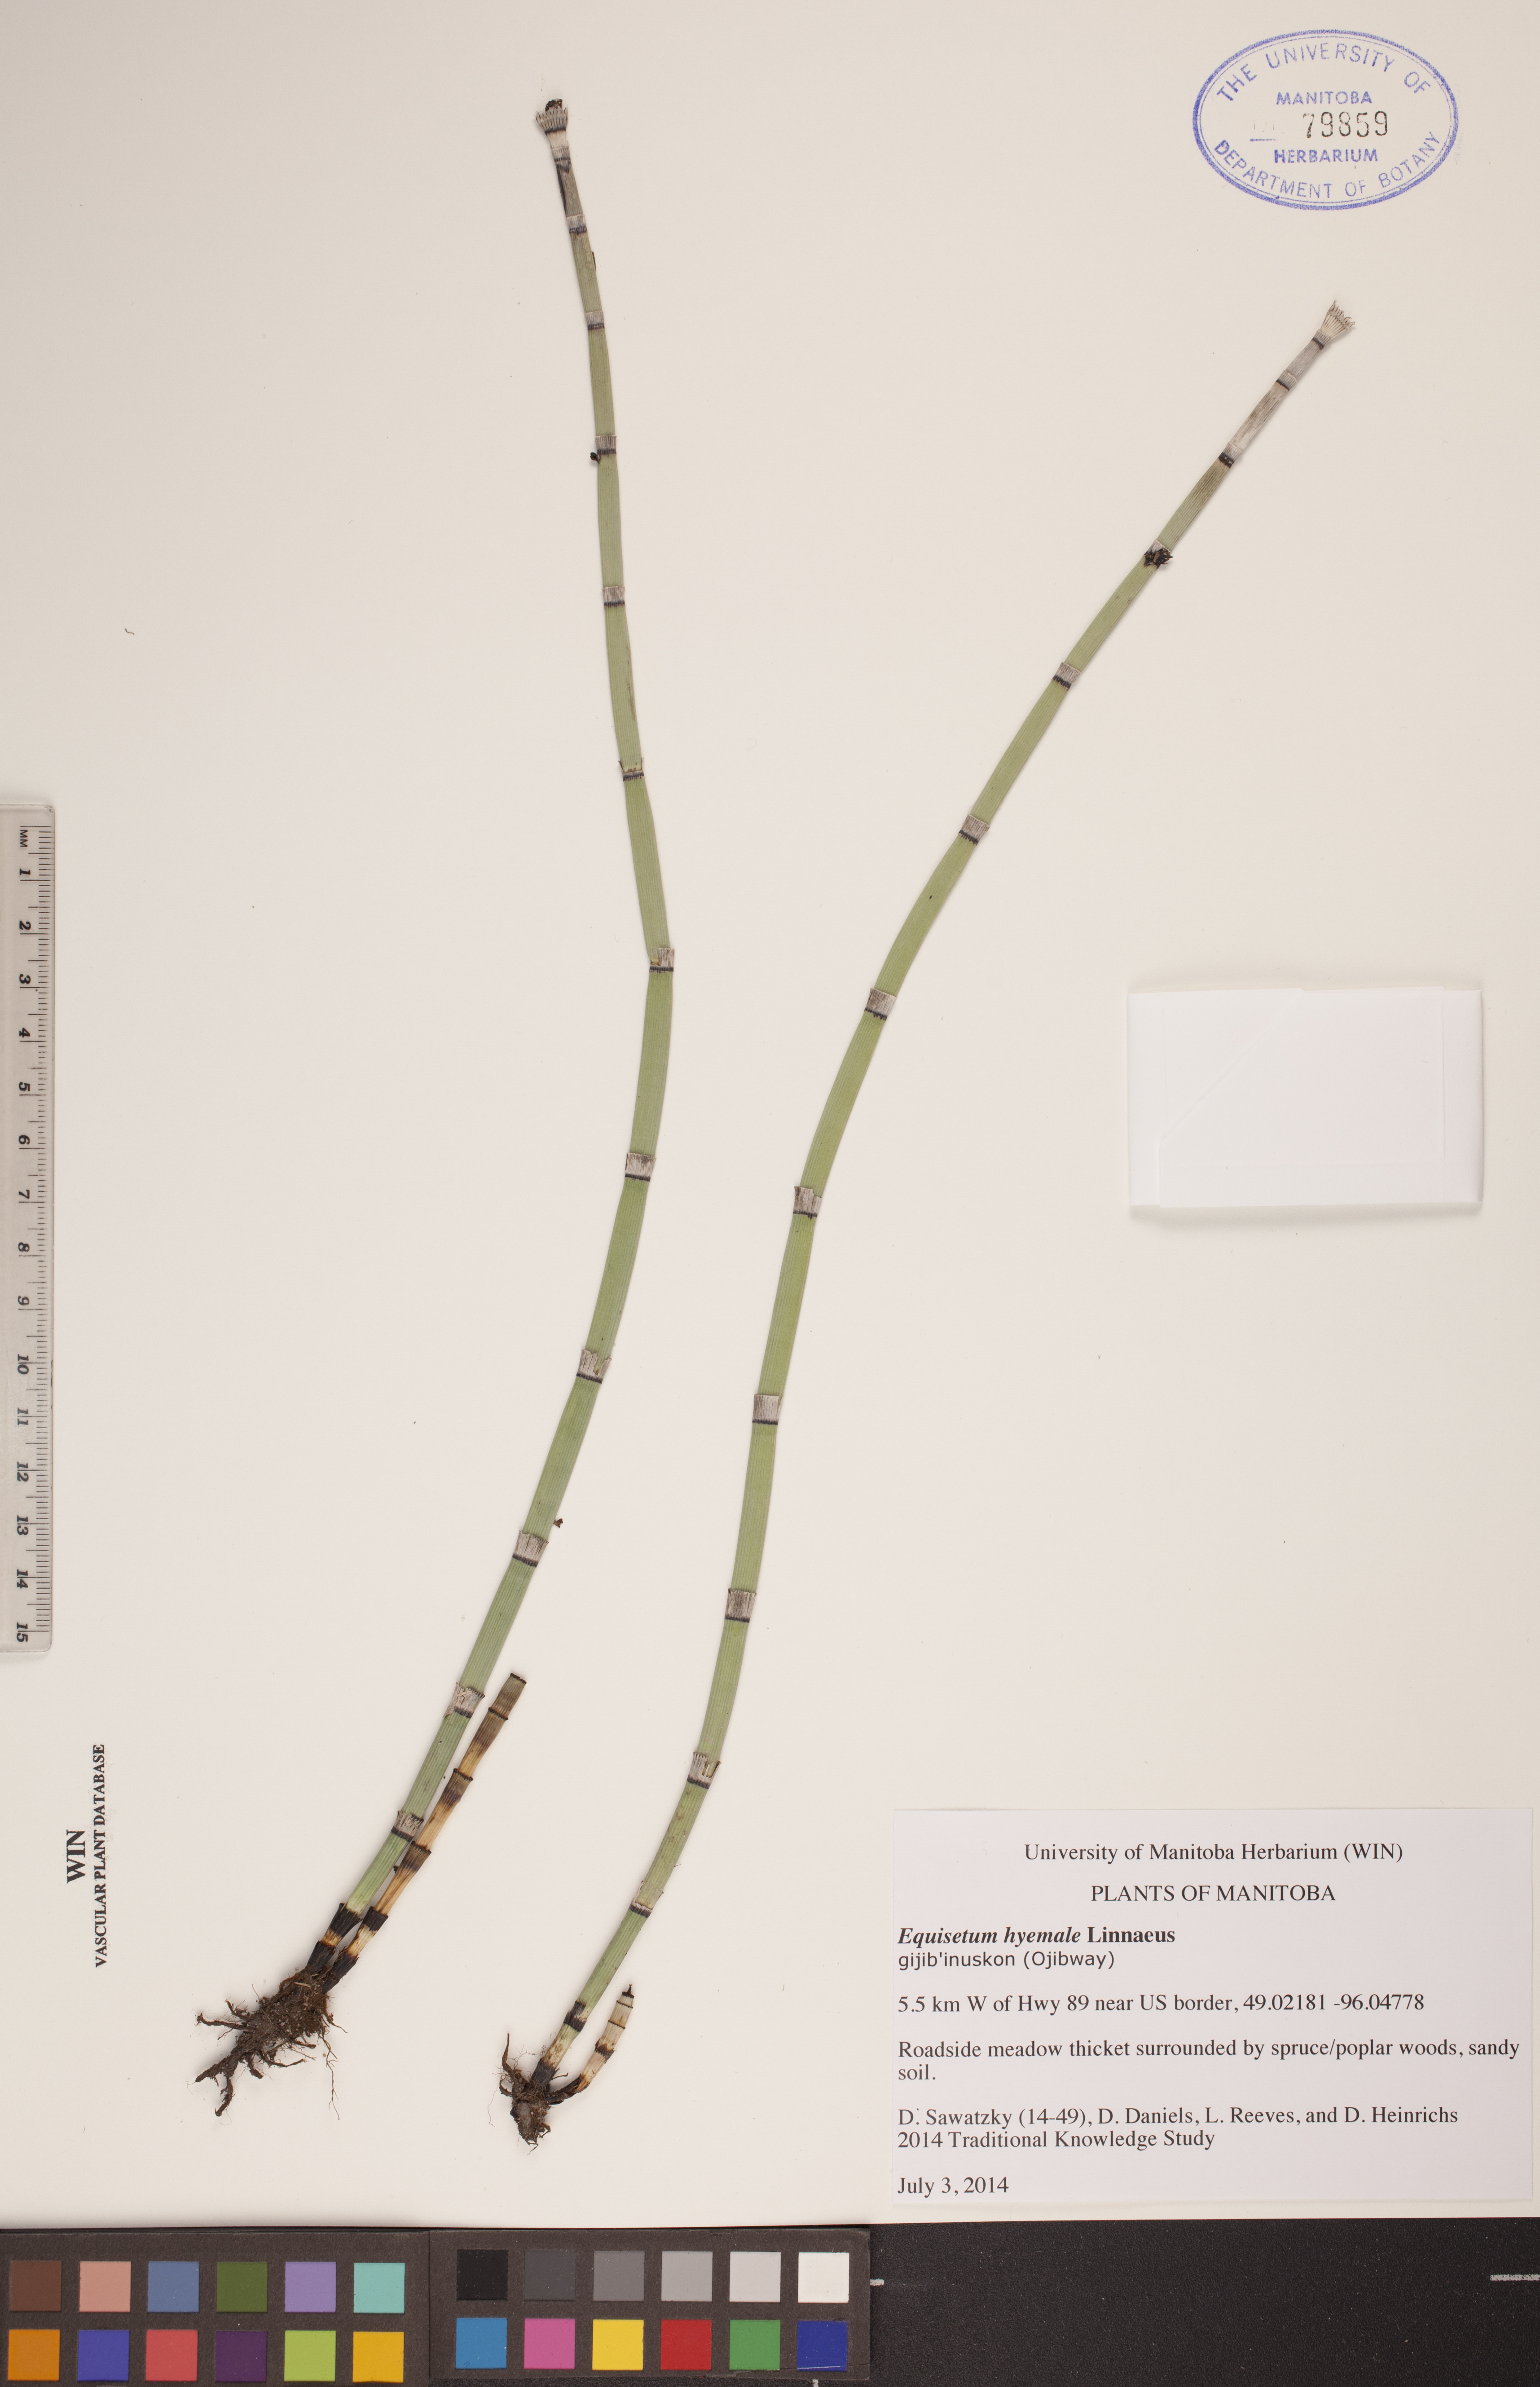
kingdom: Plantae
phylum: Tracheophyta
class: Polypodiopsida
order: Equisetales
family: Equisetaceae
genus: Equisetum
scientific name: Equisetum hyemale
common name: Rough horsetail
